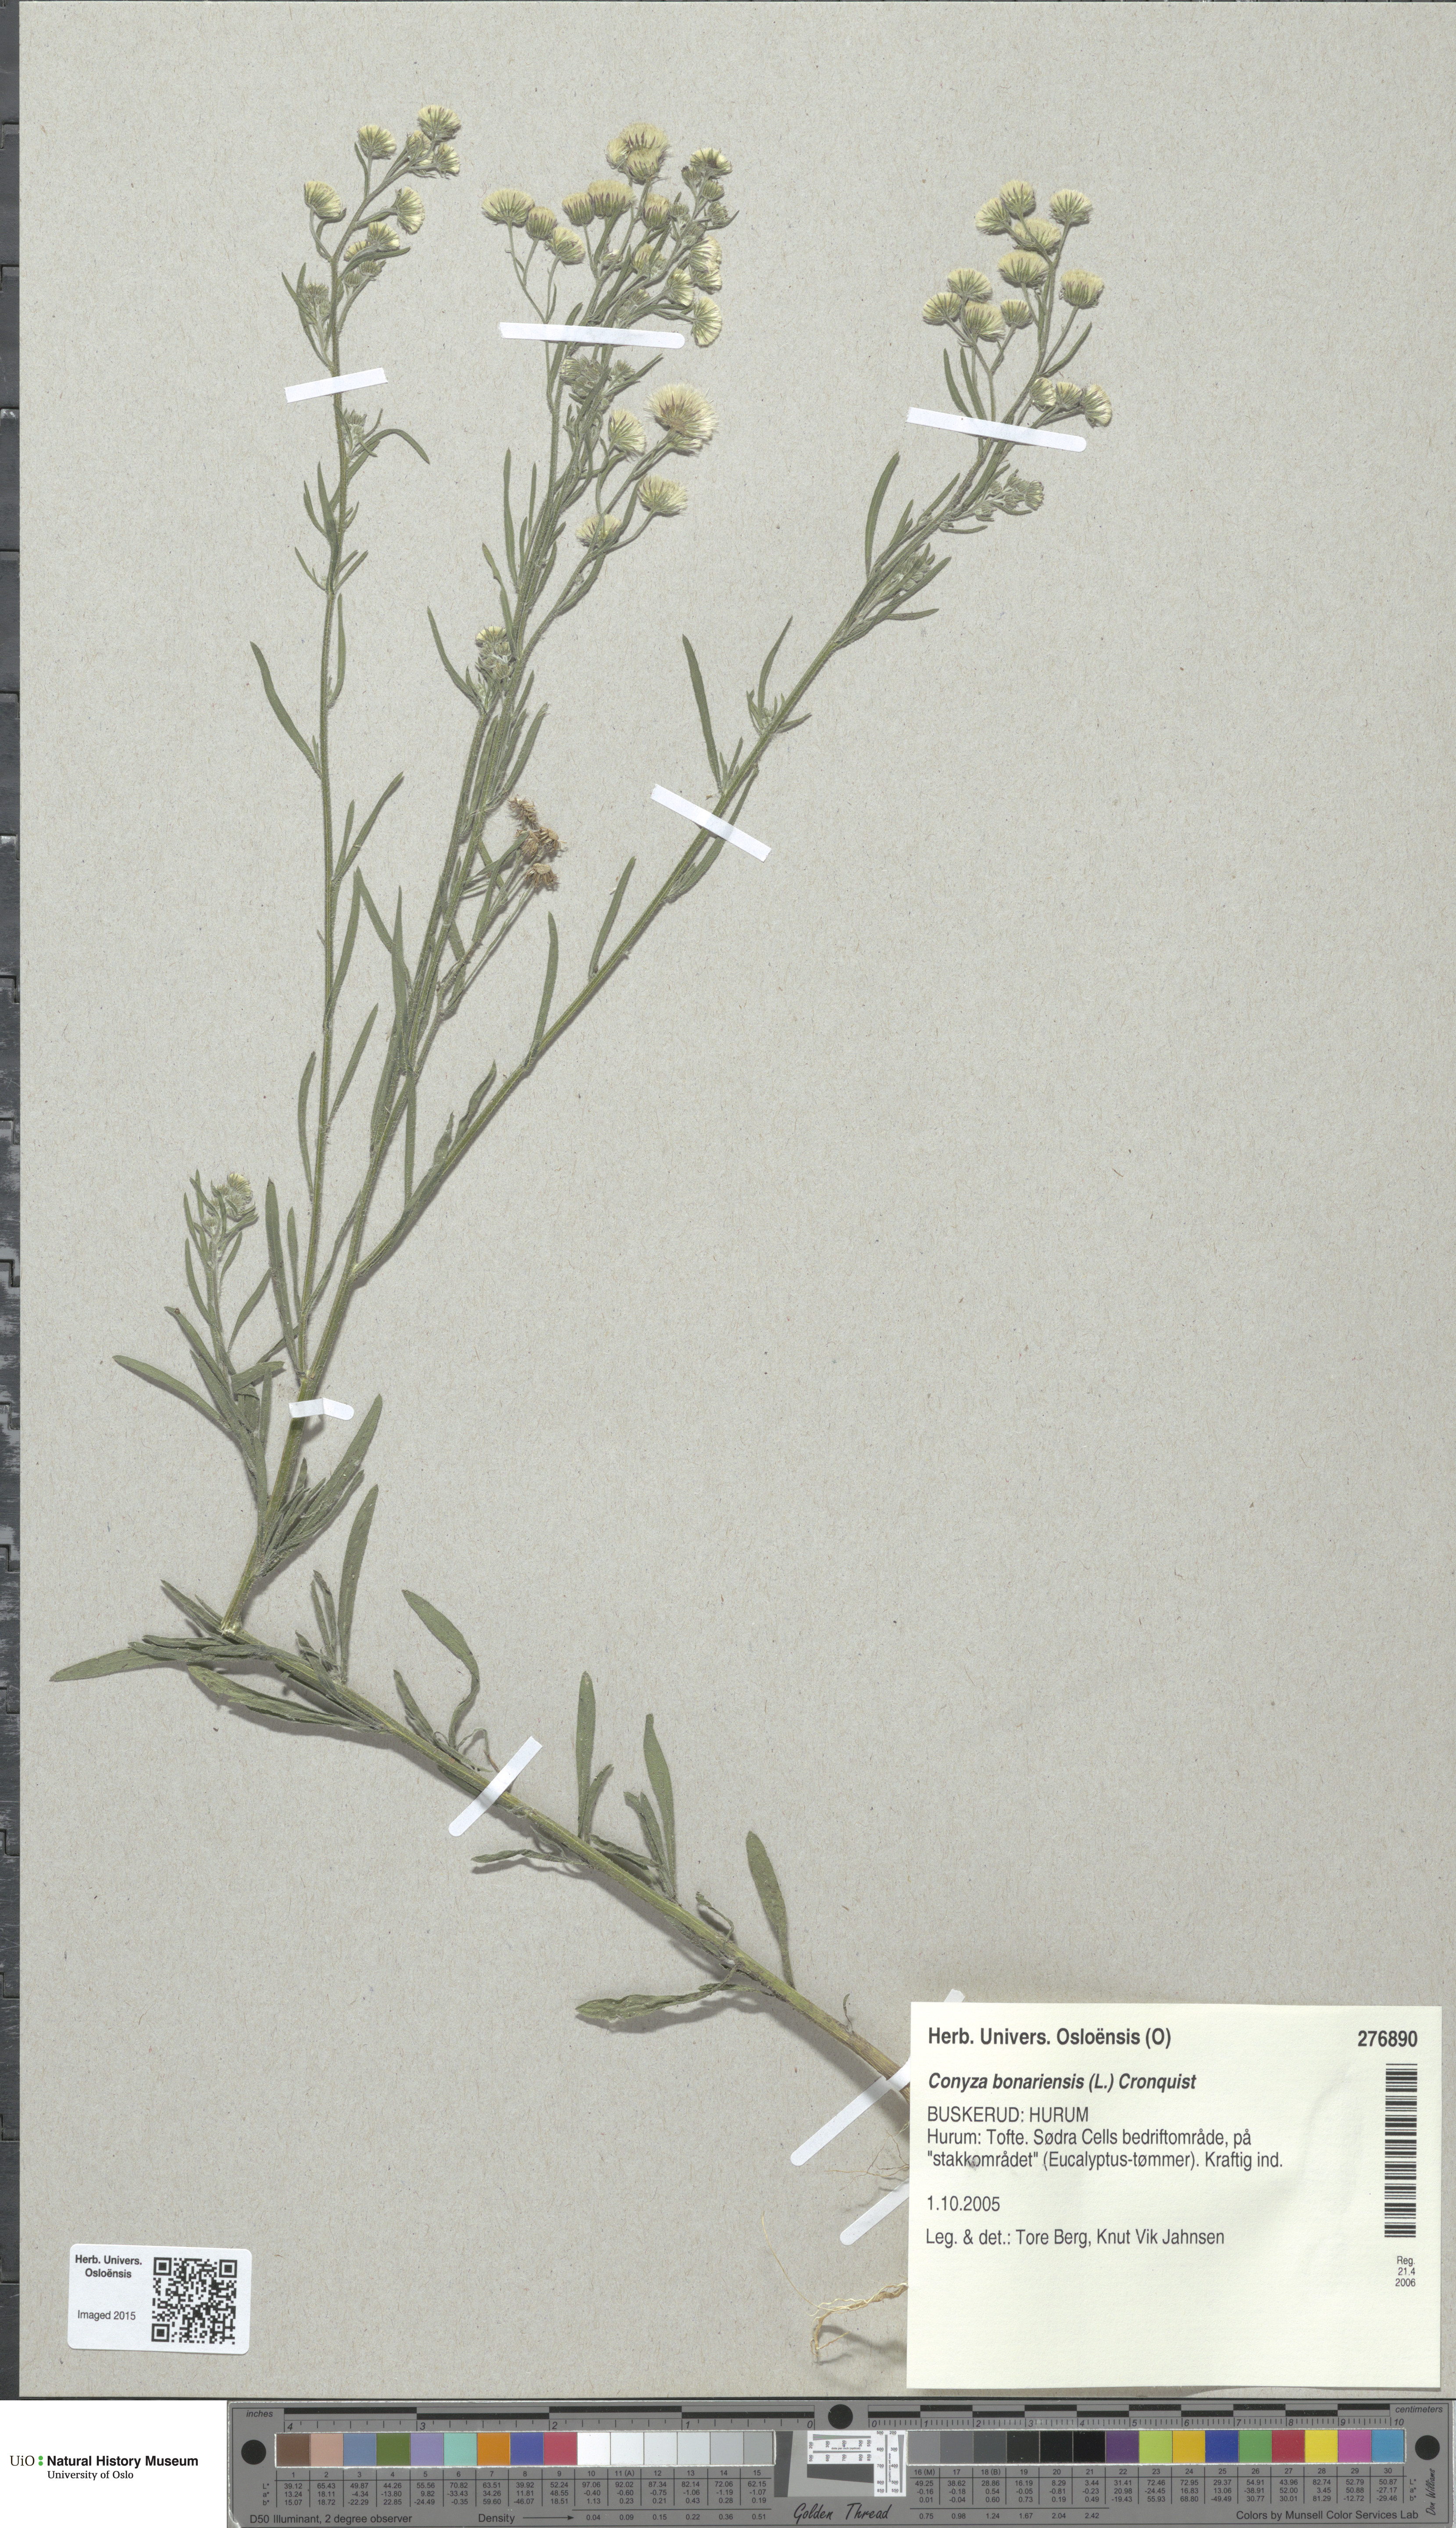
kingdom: Plantae
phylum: Tracheophyta
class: Magnoliopsida
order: Asterales
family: Asteraceae
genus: Erigeron
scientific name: Erigeron bonariensis
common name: Argentine fleabane
